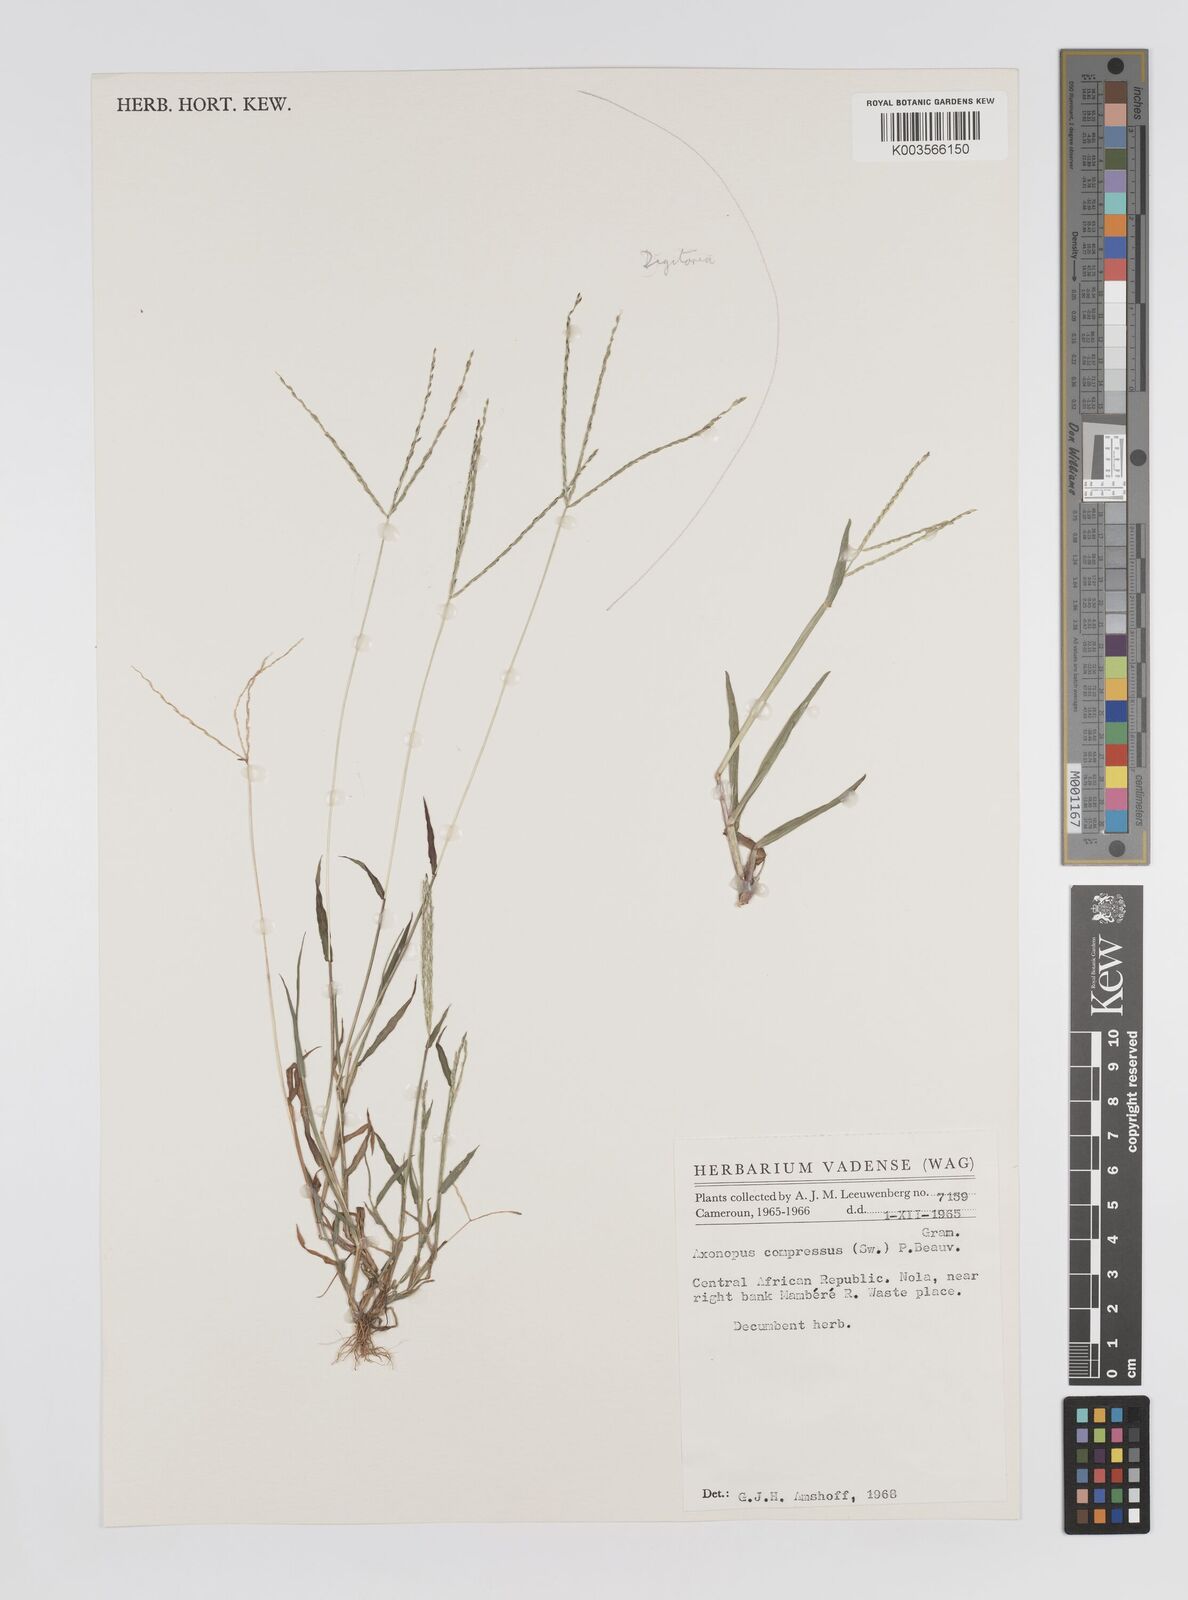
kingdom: Plantae
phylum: Tracheophyta
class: Liliopsida
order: Poales
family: Poaceae
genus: Axonopus
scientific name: Axonopus compressus
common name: American carpet grass
